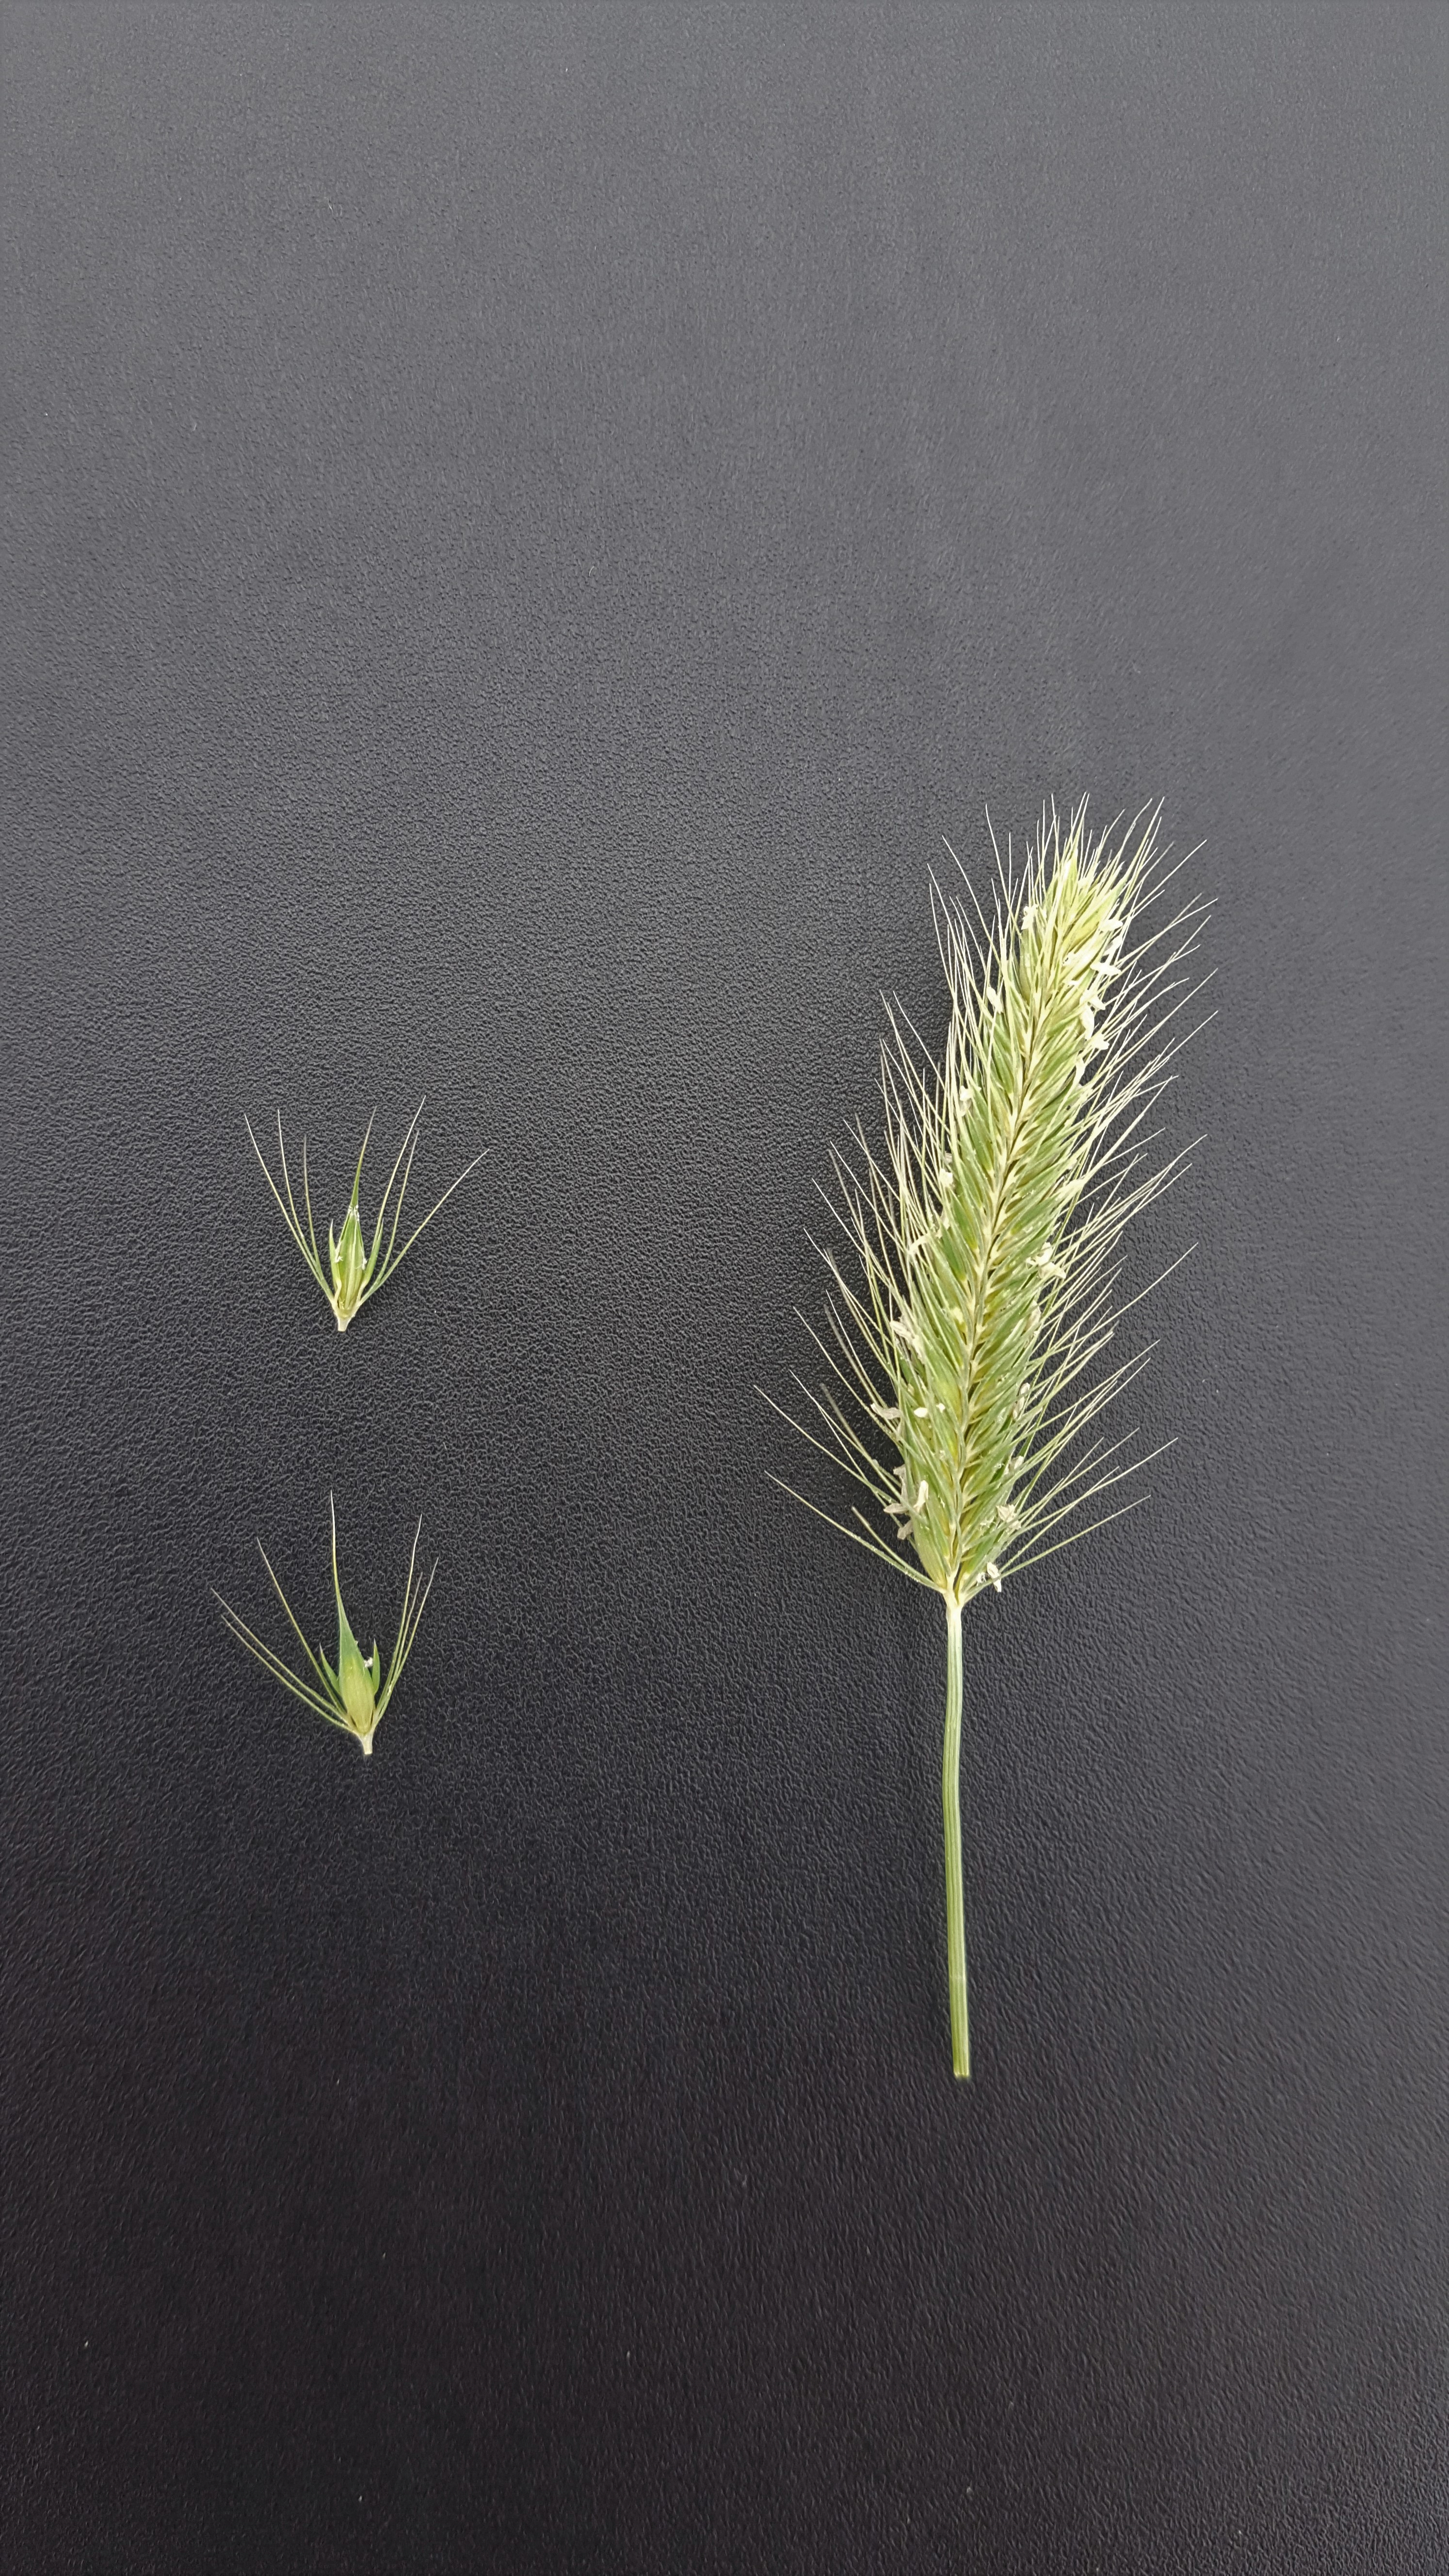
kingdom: Plantae
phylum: Tracheophyta
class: Liliopsida
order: Poales
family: Poaceae
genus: Hordeum
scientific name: Hordeum patagonicum
